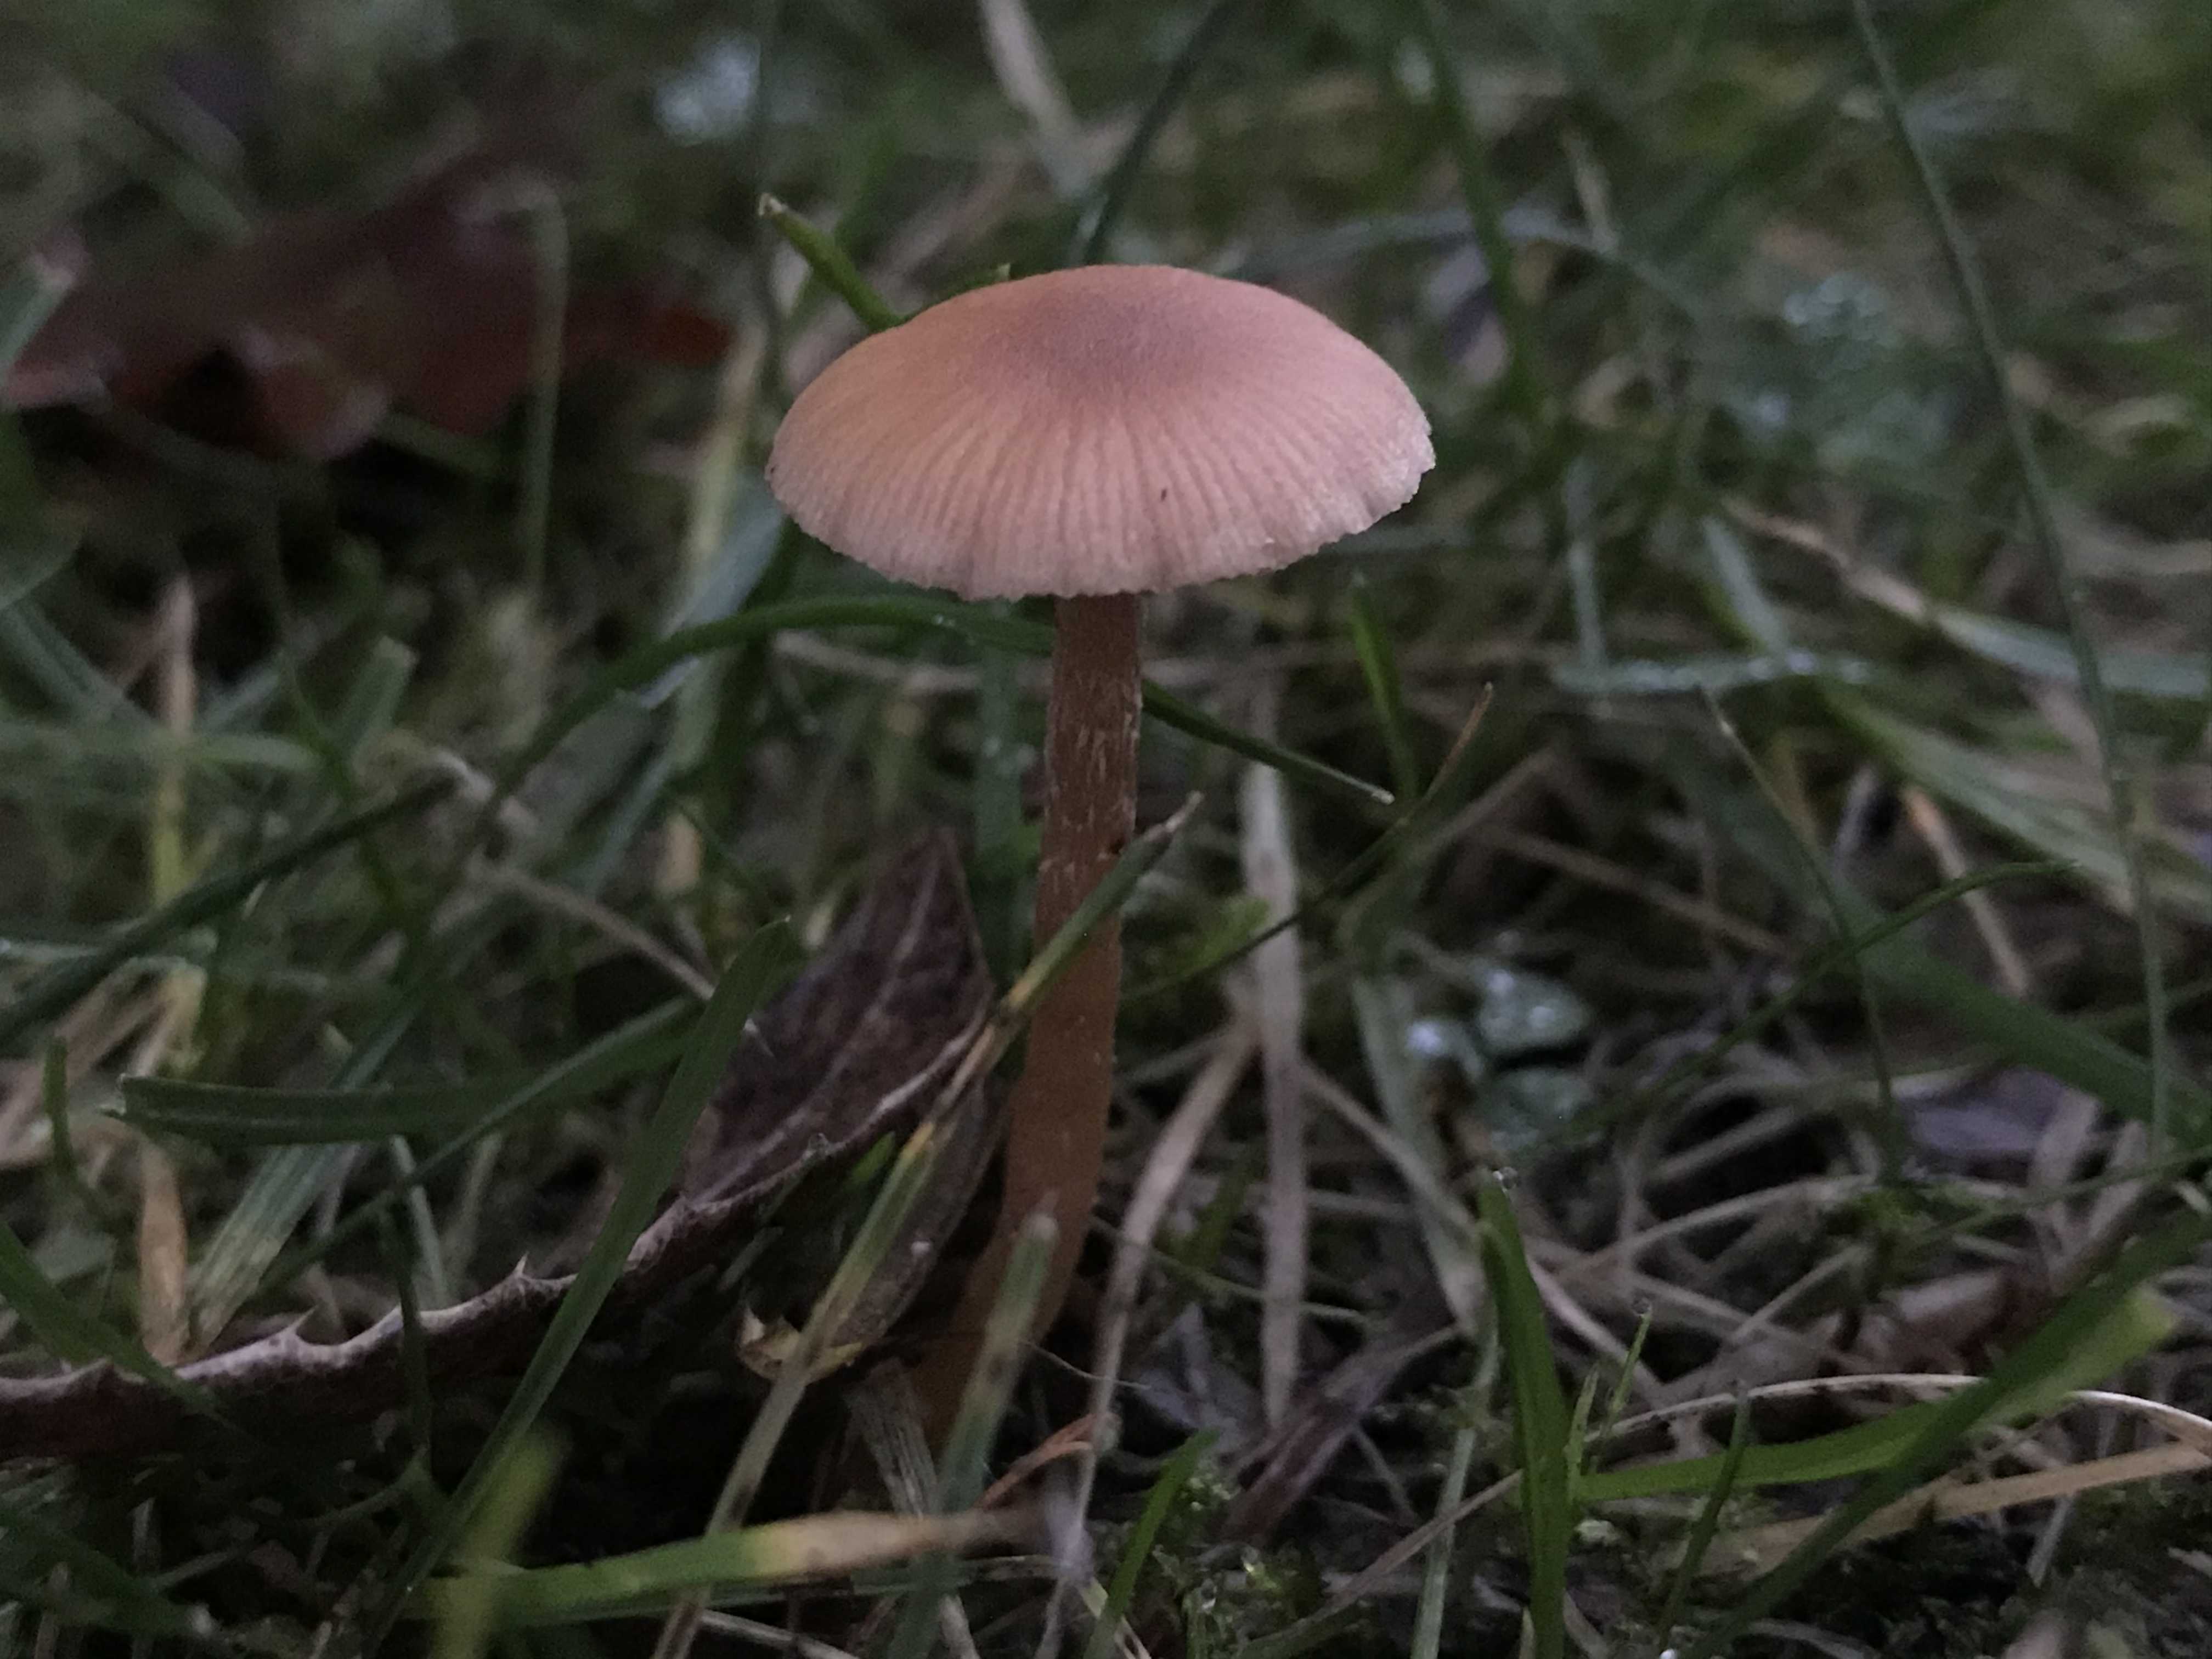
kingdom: Fungi
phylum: Basidiomycota
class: Agaricomycetes
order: Agaricales
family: Tubariaceae
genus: Tubaria
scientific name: Tubaria furfuracea
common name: kliddet fnughat
